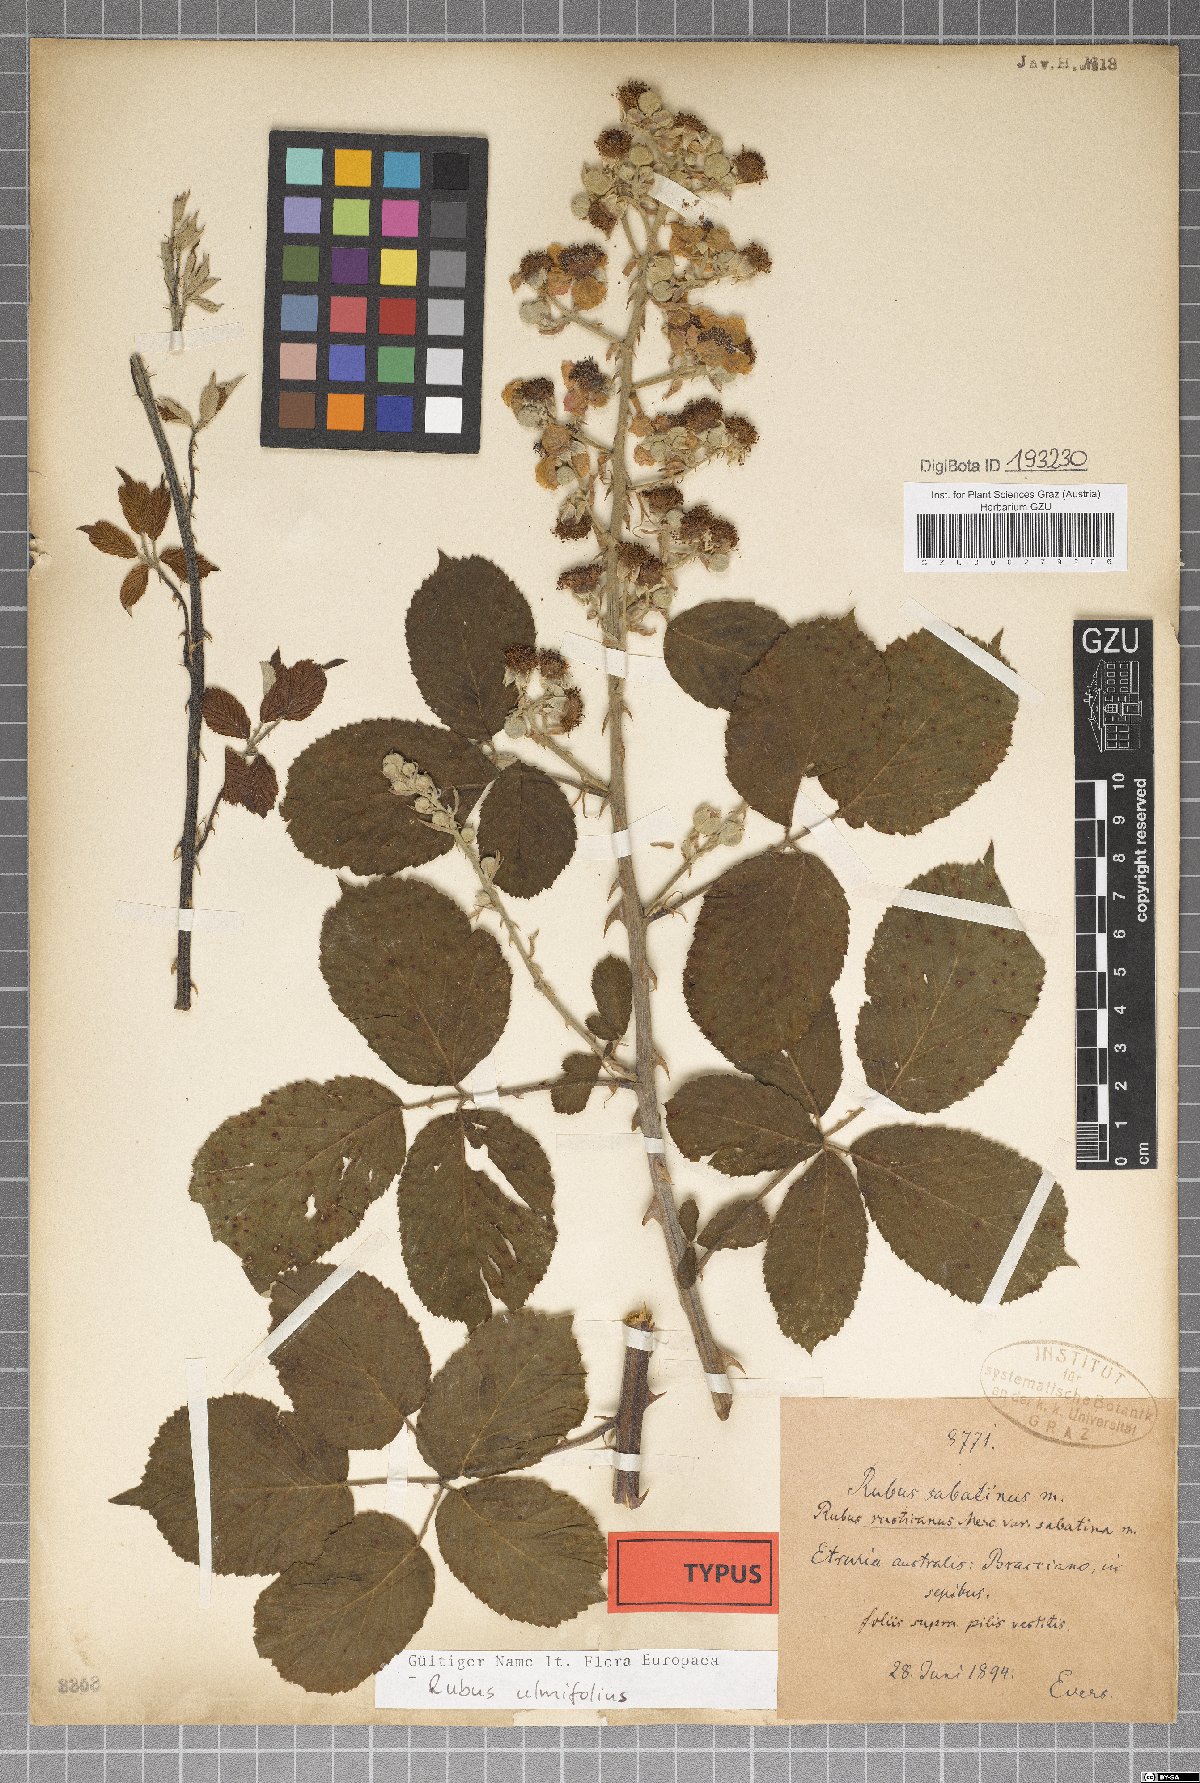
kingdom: Plantae
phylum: Tracheophyta
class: Magnoliopsida
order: Rosales
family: Rosaceae
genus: Rubus
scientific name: Rubus sabatinus
